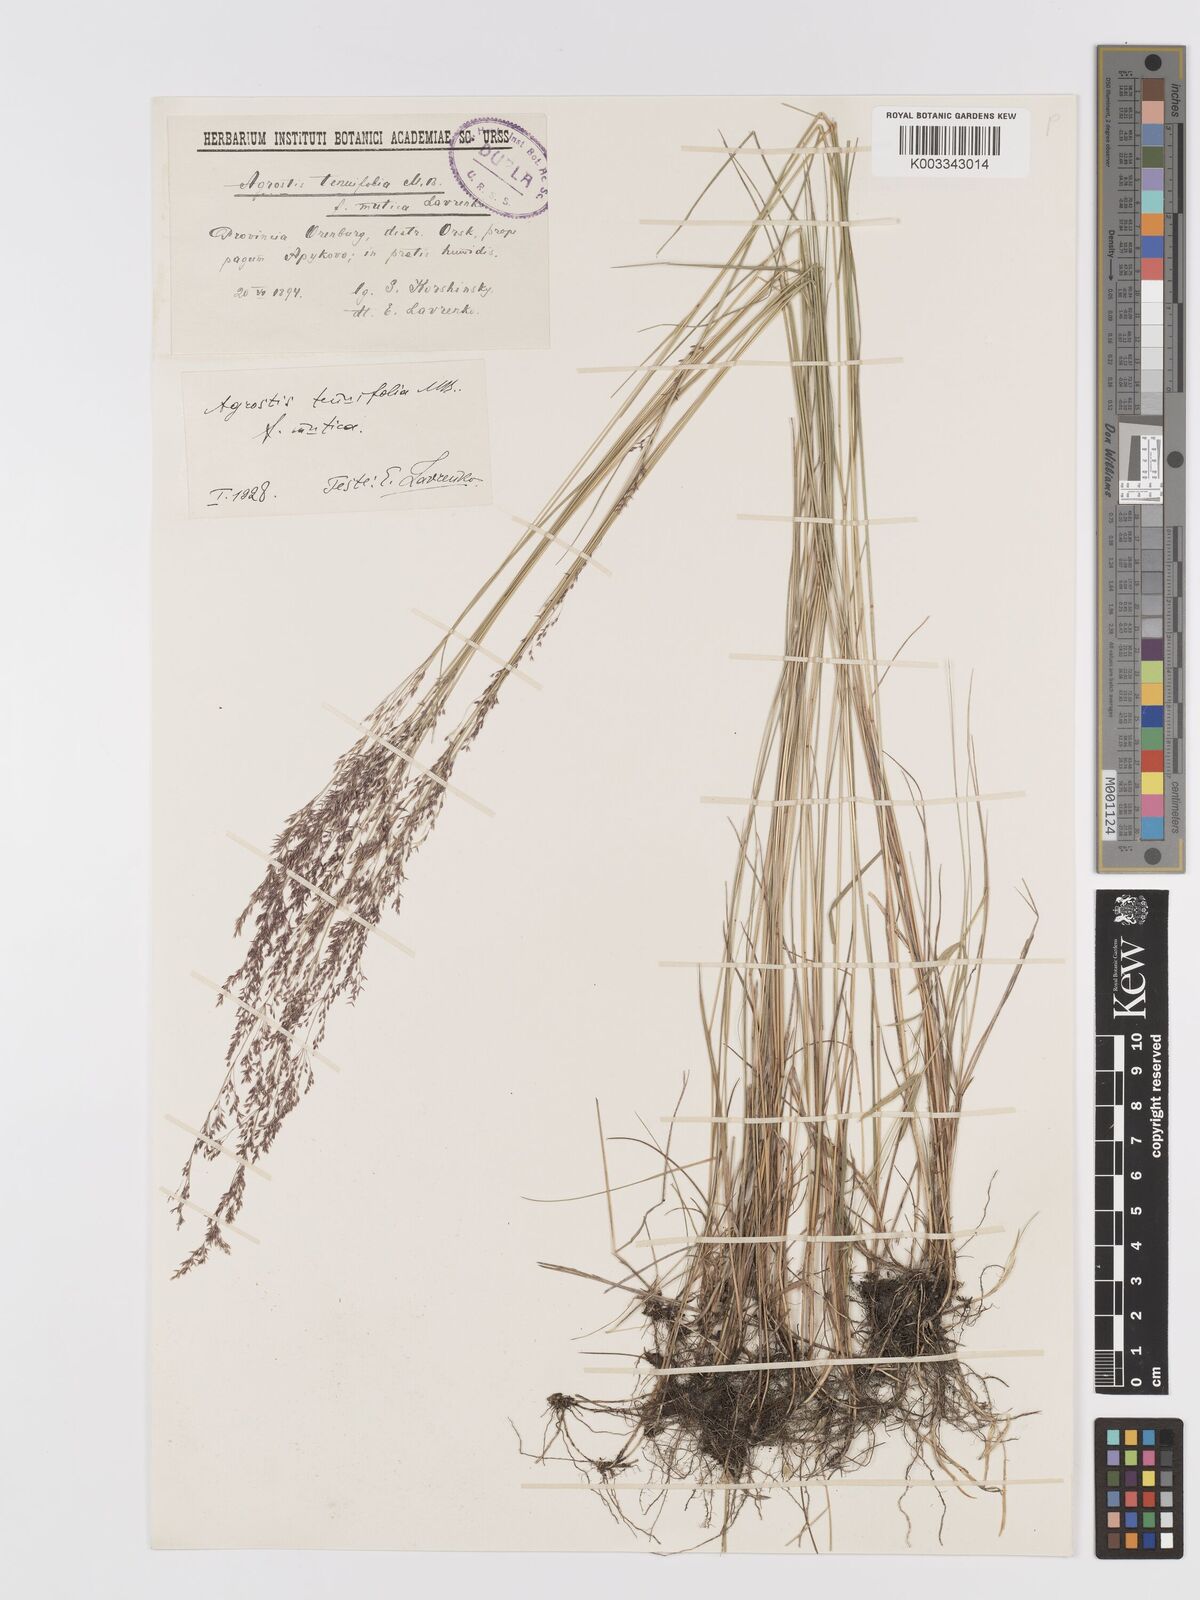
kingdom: Plantae
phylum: Tracheophyta
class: Liliopsida
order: Poales
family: Poaceae
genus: Agrostis
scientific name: Agrostis
